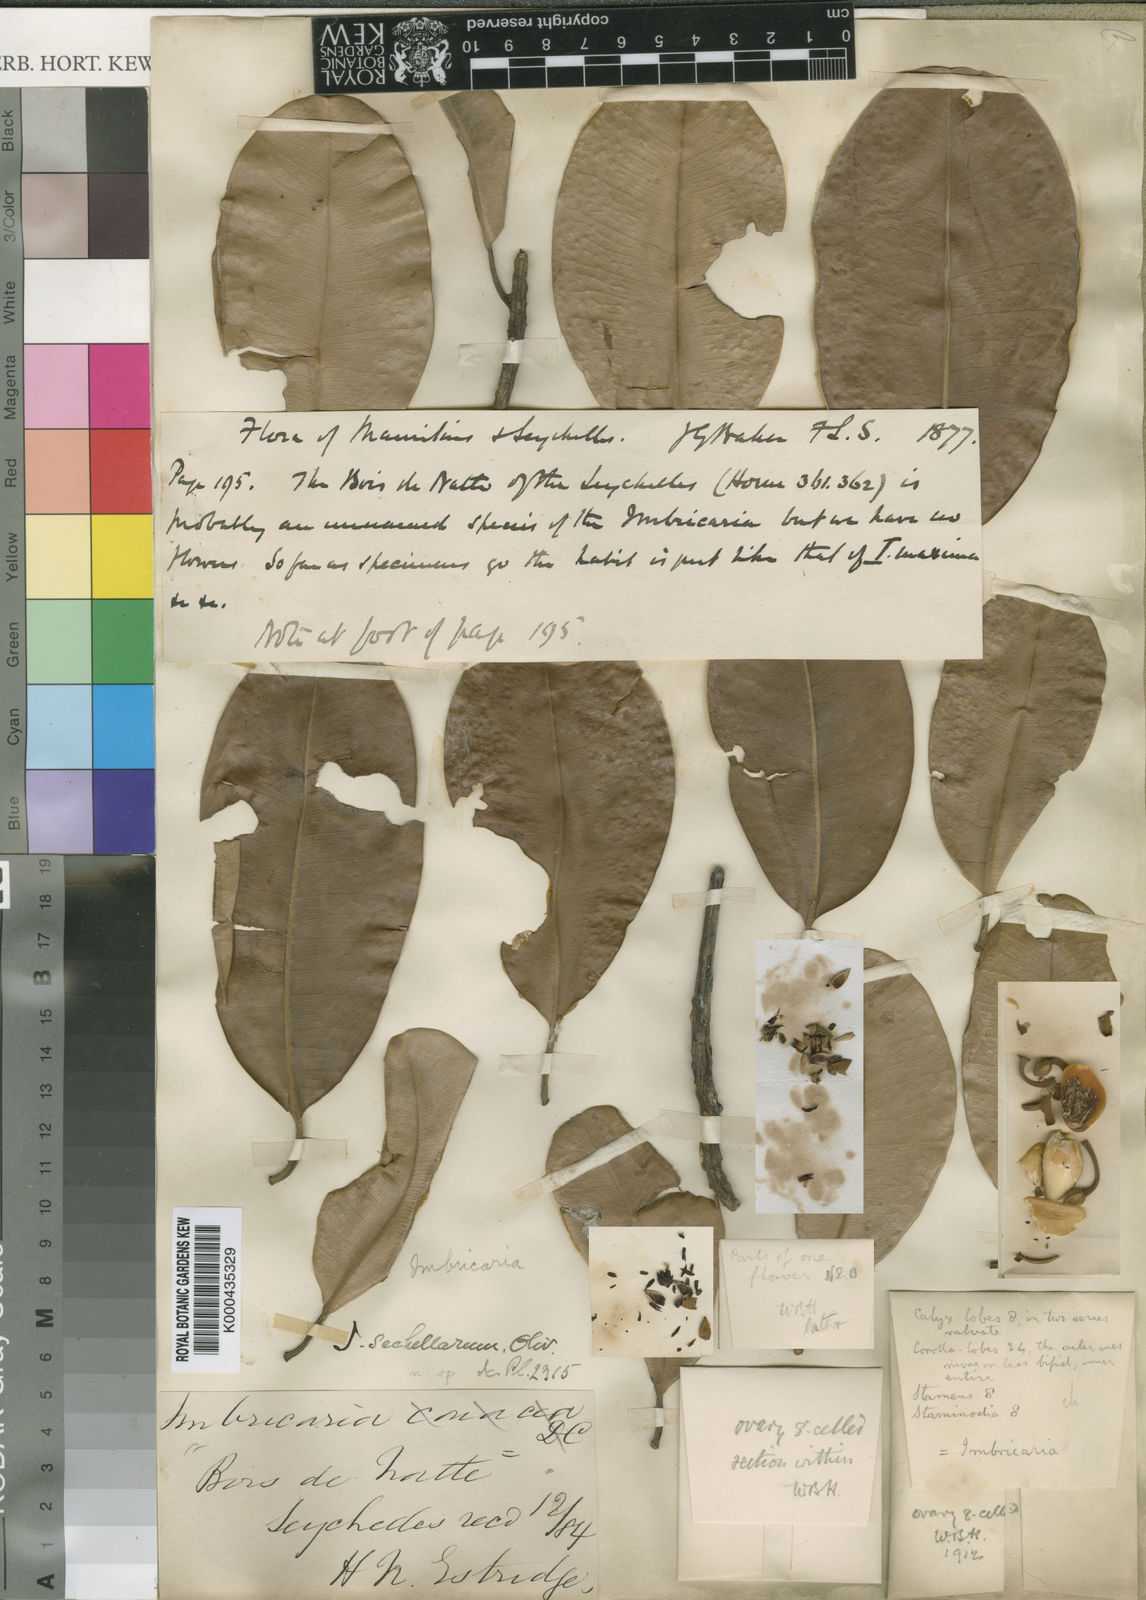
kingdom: Plantae
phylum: Tracheophyta
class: Magnoliopsida
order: Ericales
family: Sapotaceae
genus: Mimusops
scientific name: Mimusops sechellarum
